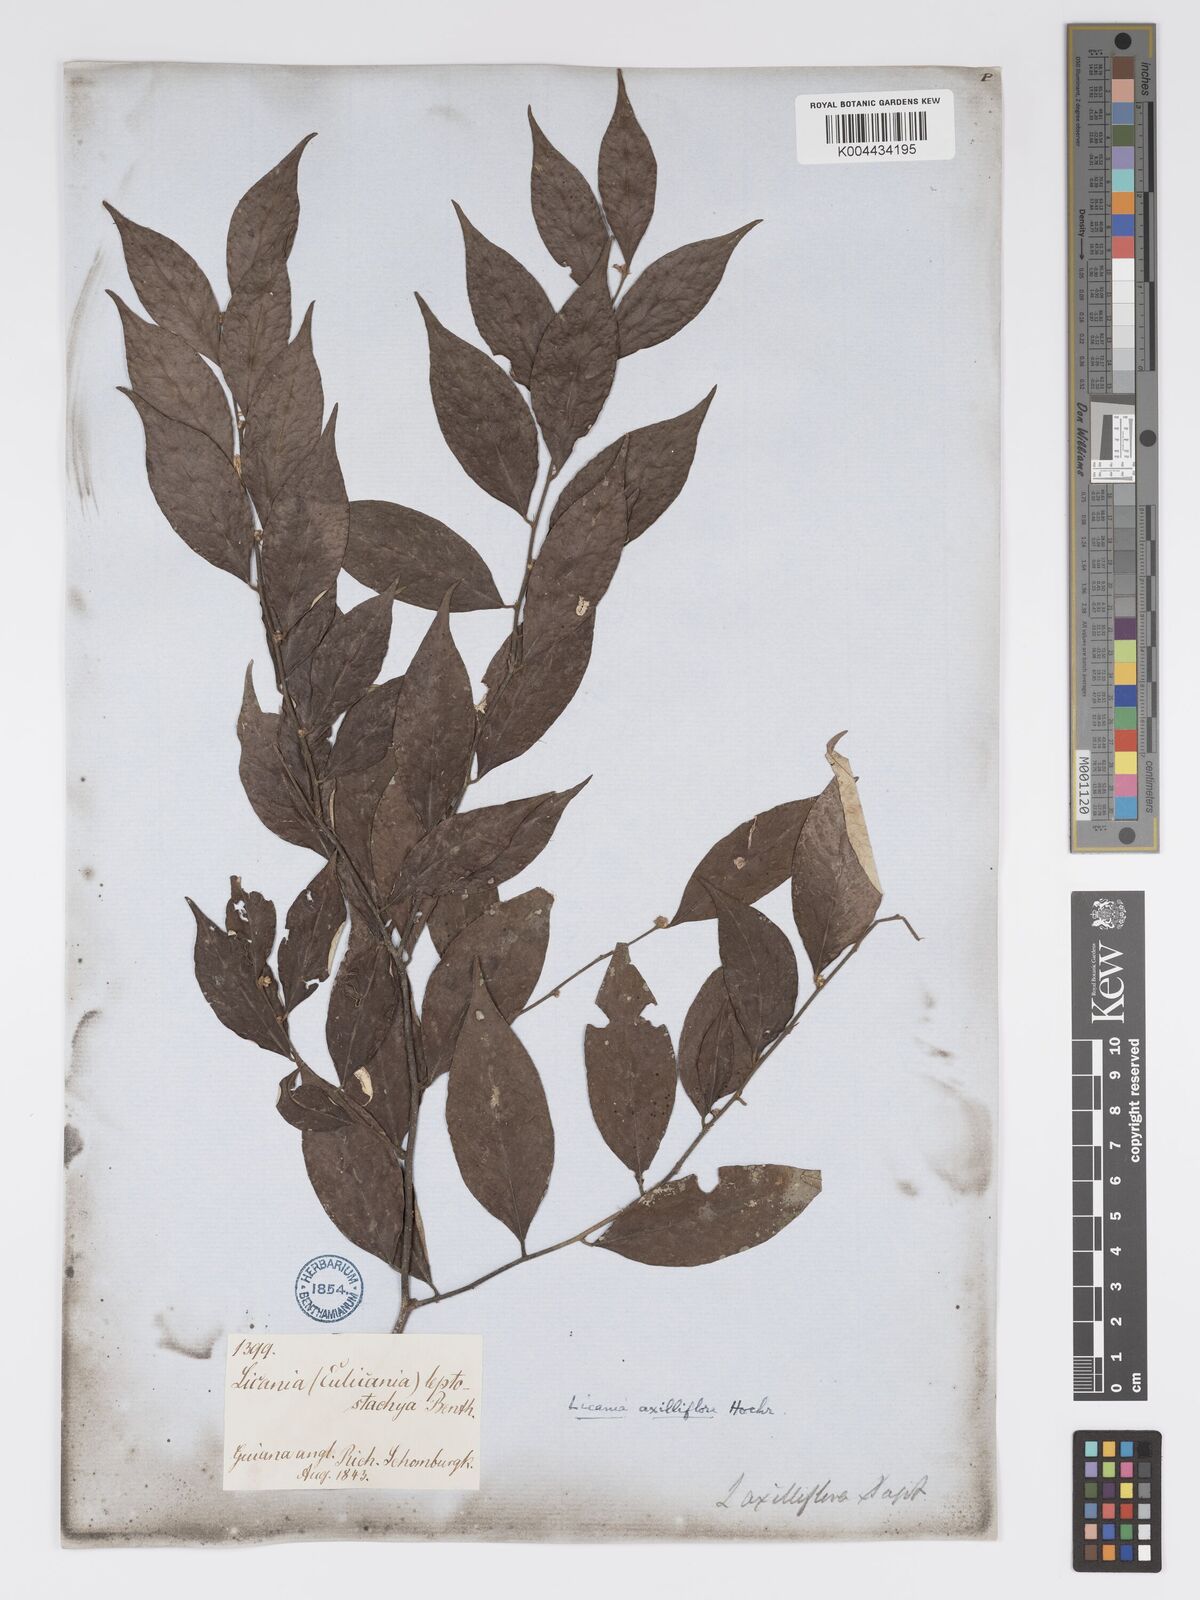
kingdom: Plantae
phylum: Tracheophyta
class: Magnoliopsida
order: Malpighiales
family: Chrysobalanaceae
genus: Licania
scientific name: Licania leptostachya
